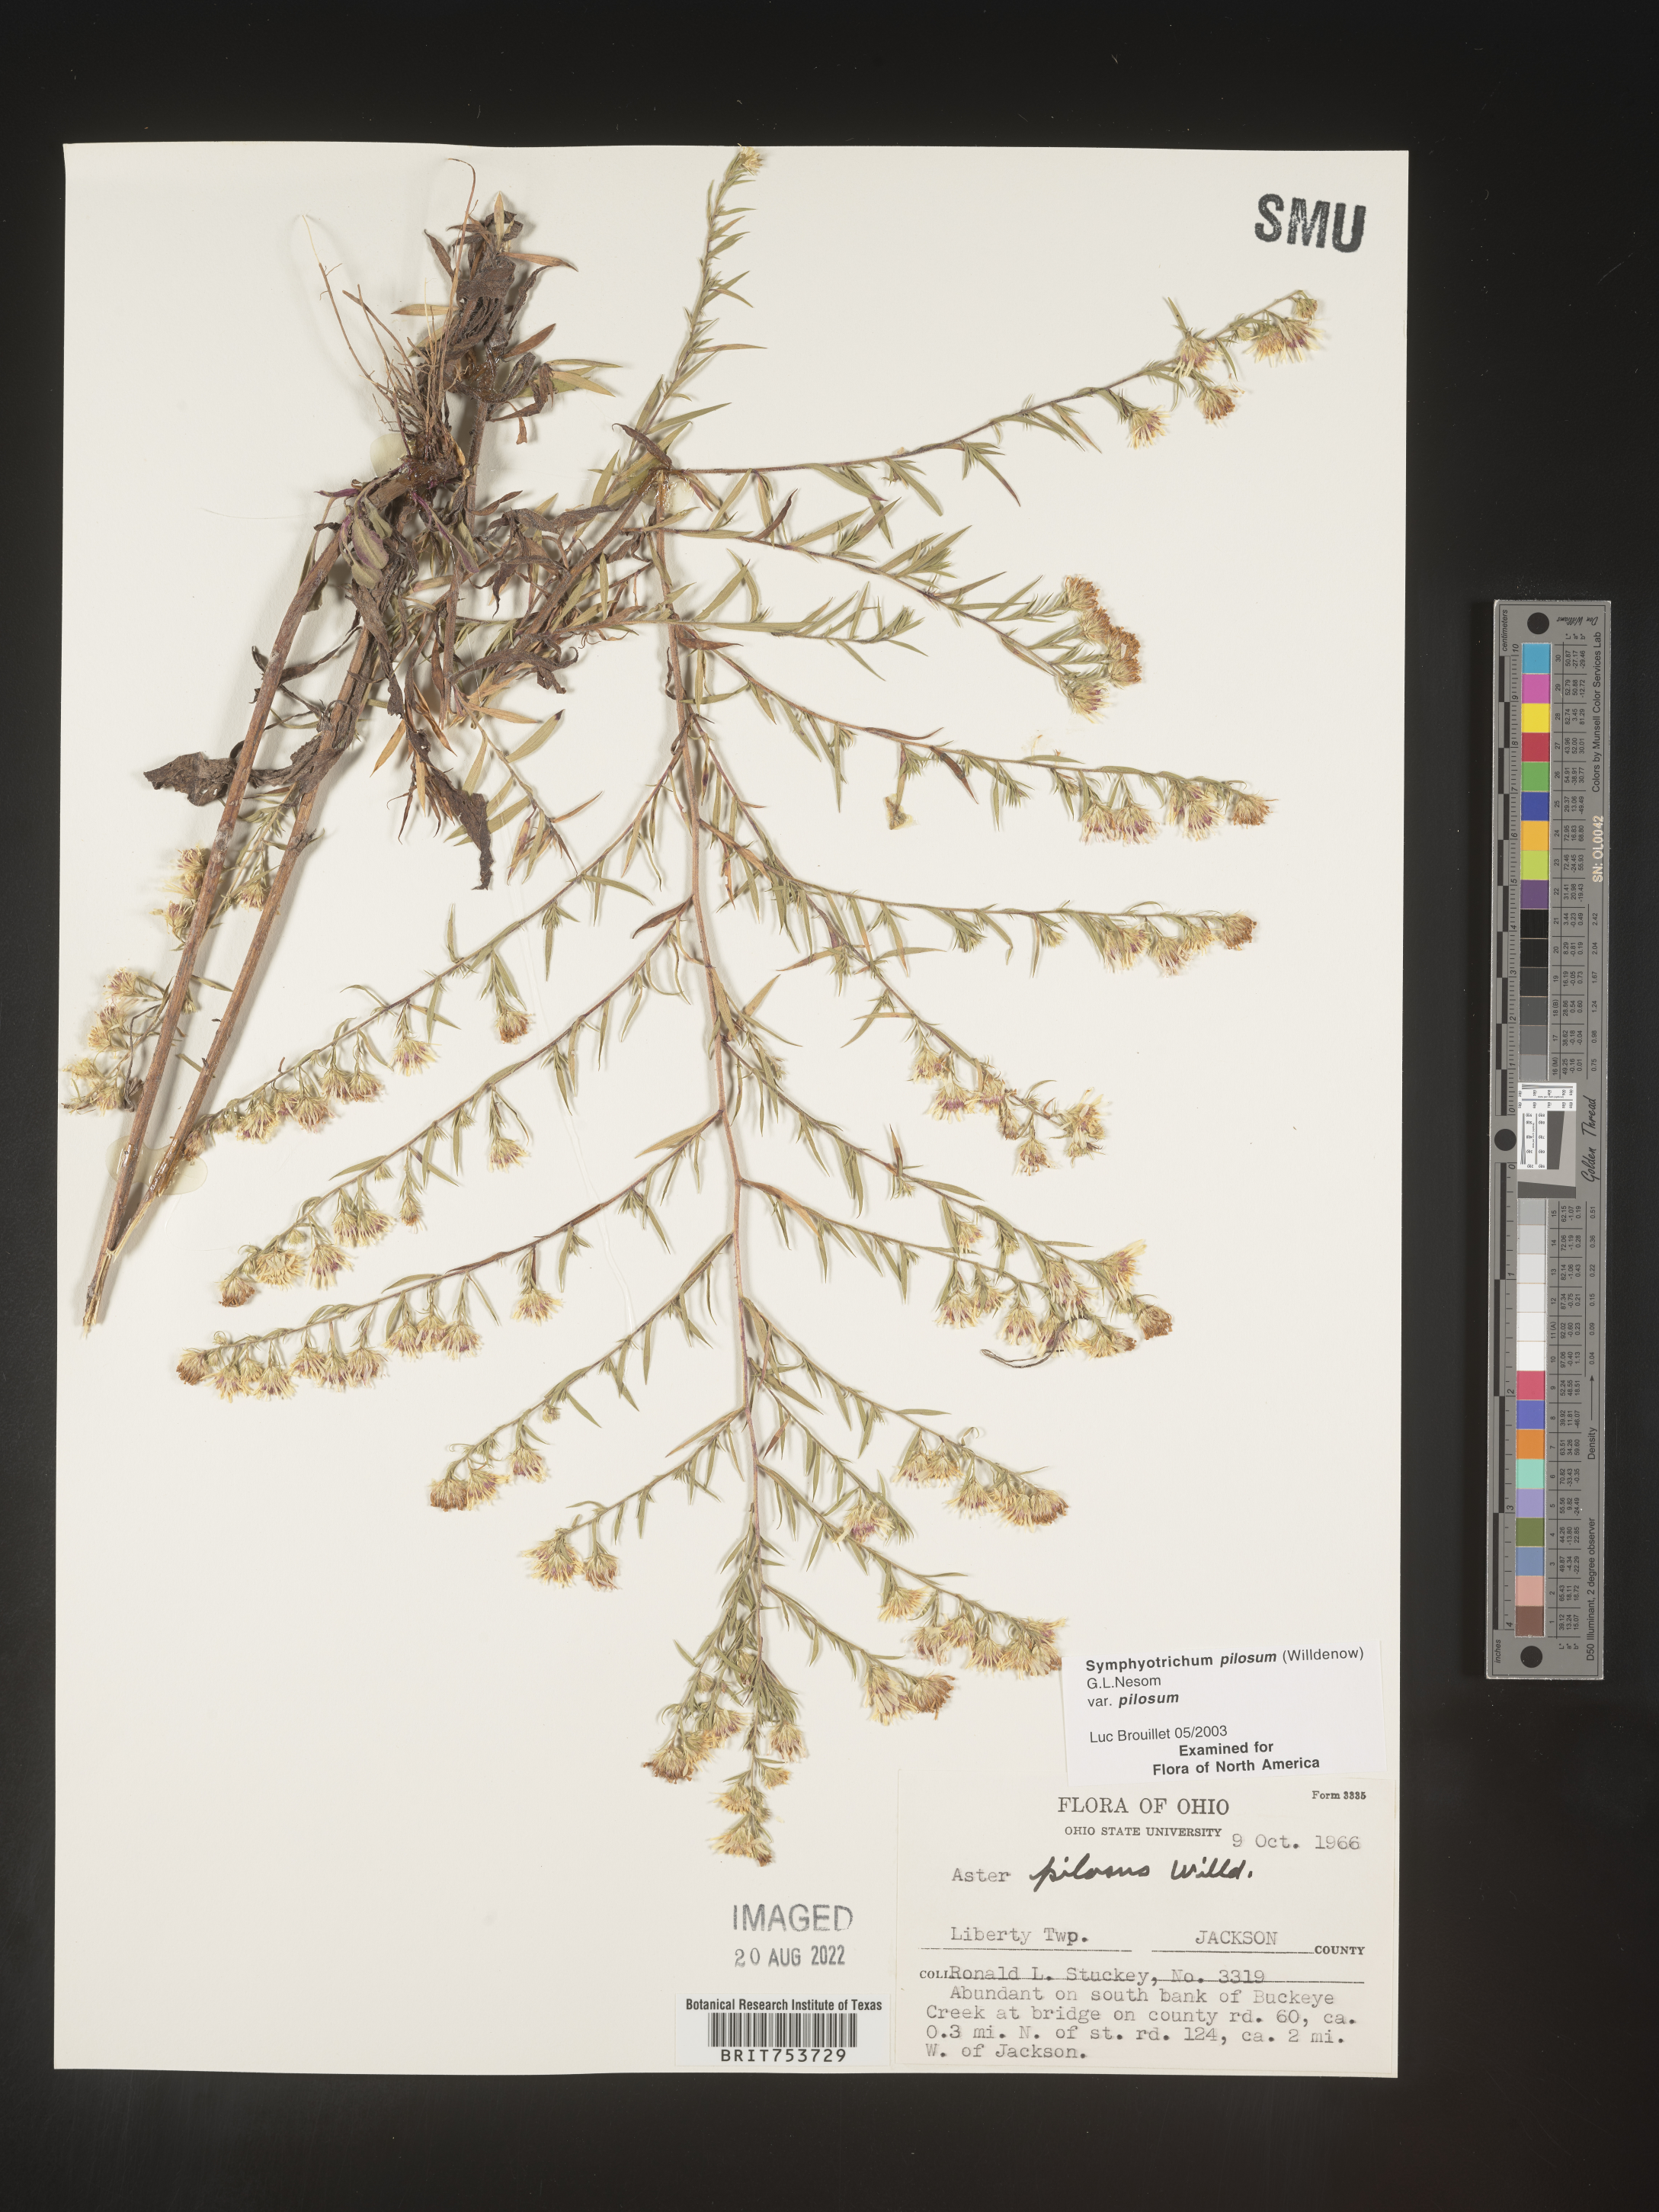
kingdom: Plantae
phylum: Tracheophyta
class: Magnoliopsida
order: Asterales
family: Asteraceae
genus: Symphyotrichum
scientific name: Symphyotrichum pilosum
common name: Awl aster
